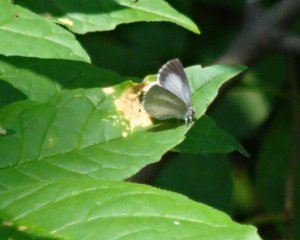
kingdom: Animalia
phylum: Arthropoda
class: Insecta
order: Lepidoptera
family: Lycaenidae
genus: Cyaniris
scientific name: Cyaniris neglecta
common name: Summer Azure
